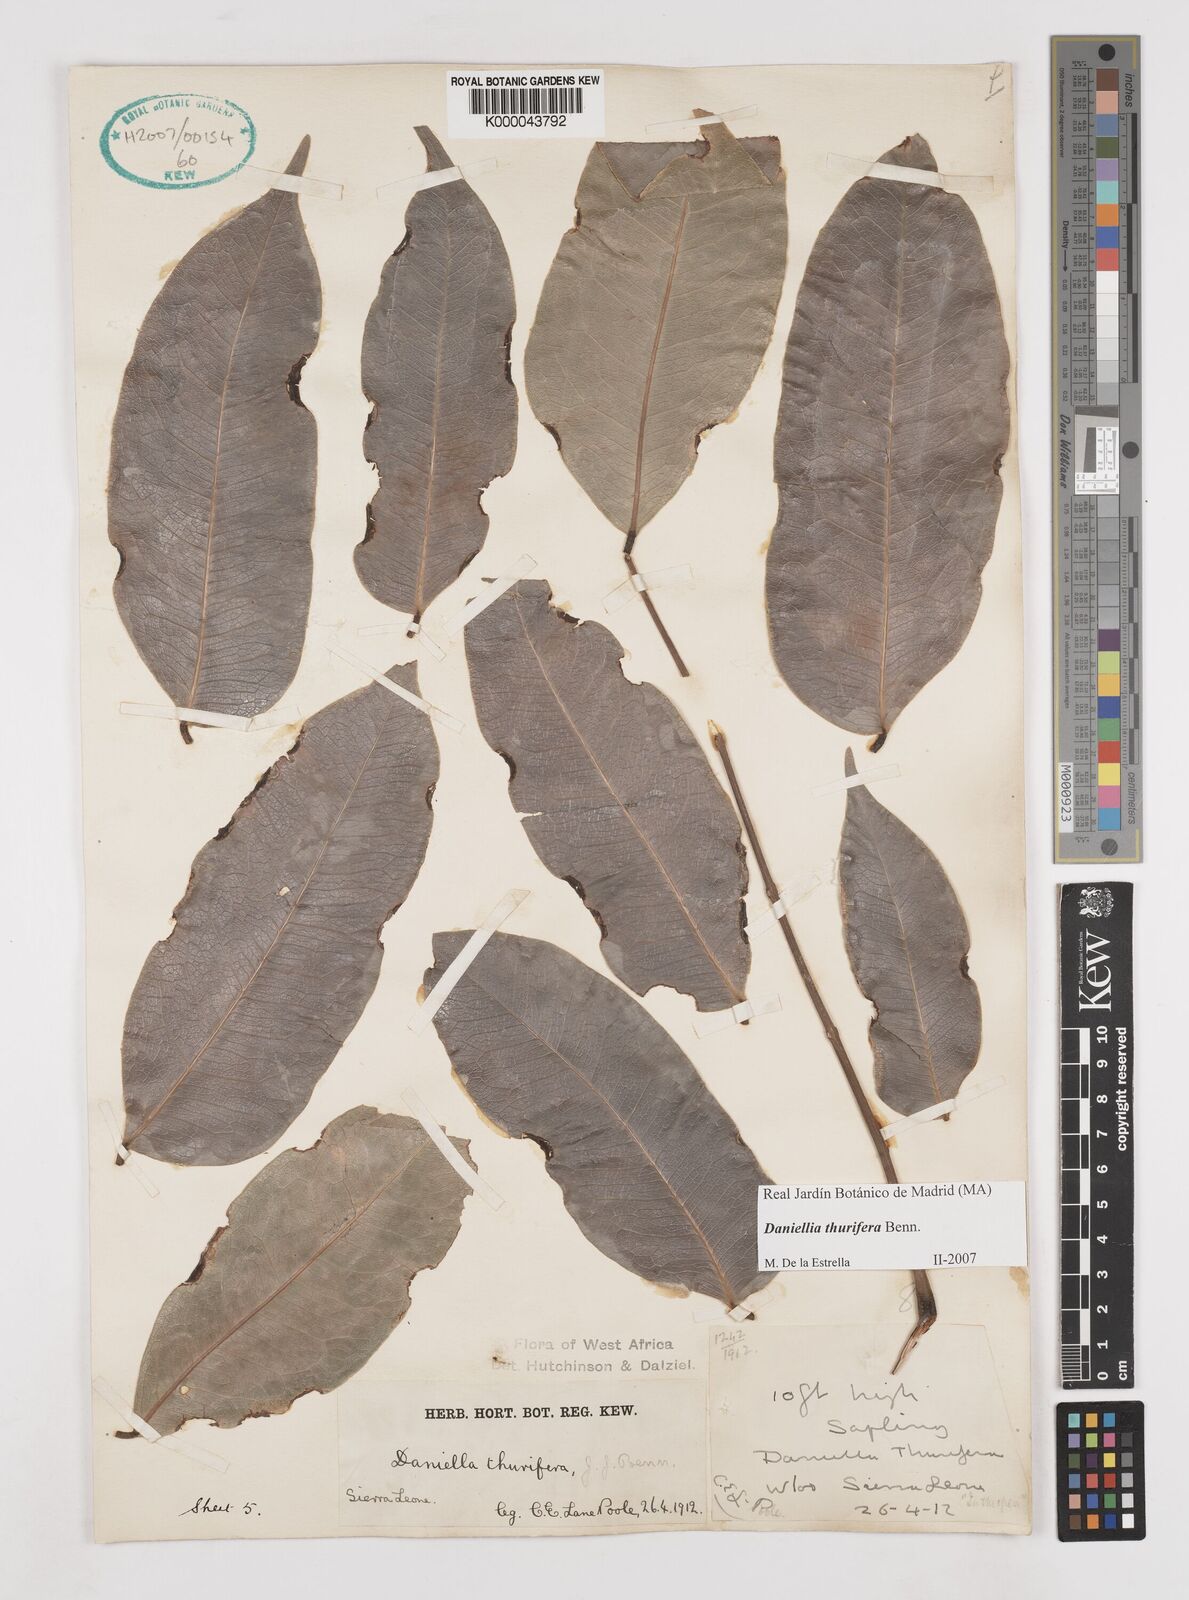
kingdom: Plantae
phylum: Tracheophyta
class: Magnoliopsida
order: Fabales
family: Fabaceae
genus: Daniellia
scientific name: Daniellia thurifera
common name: Sudan copal
